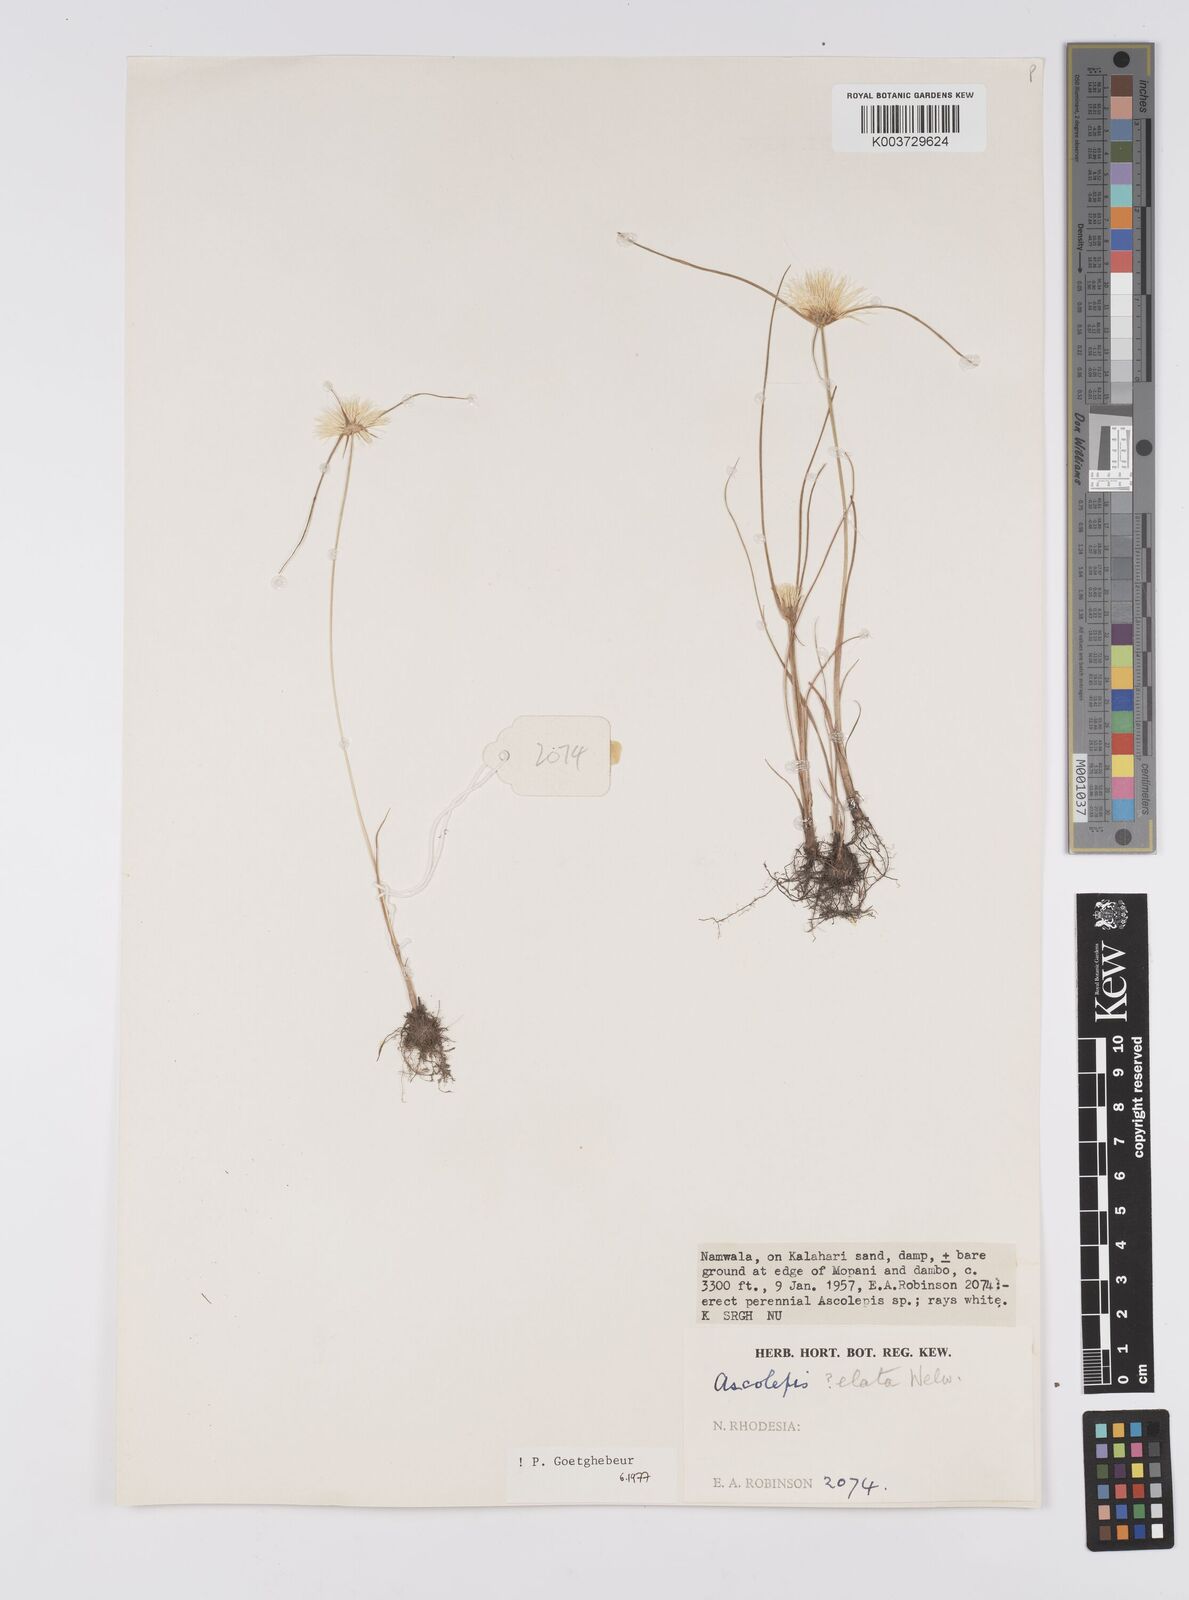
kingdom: Plantae
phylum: Tracheophyta
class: Liliopsida
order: Poales
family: Cyperaceae
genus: Cyperus
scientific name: Cyperus
